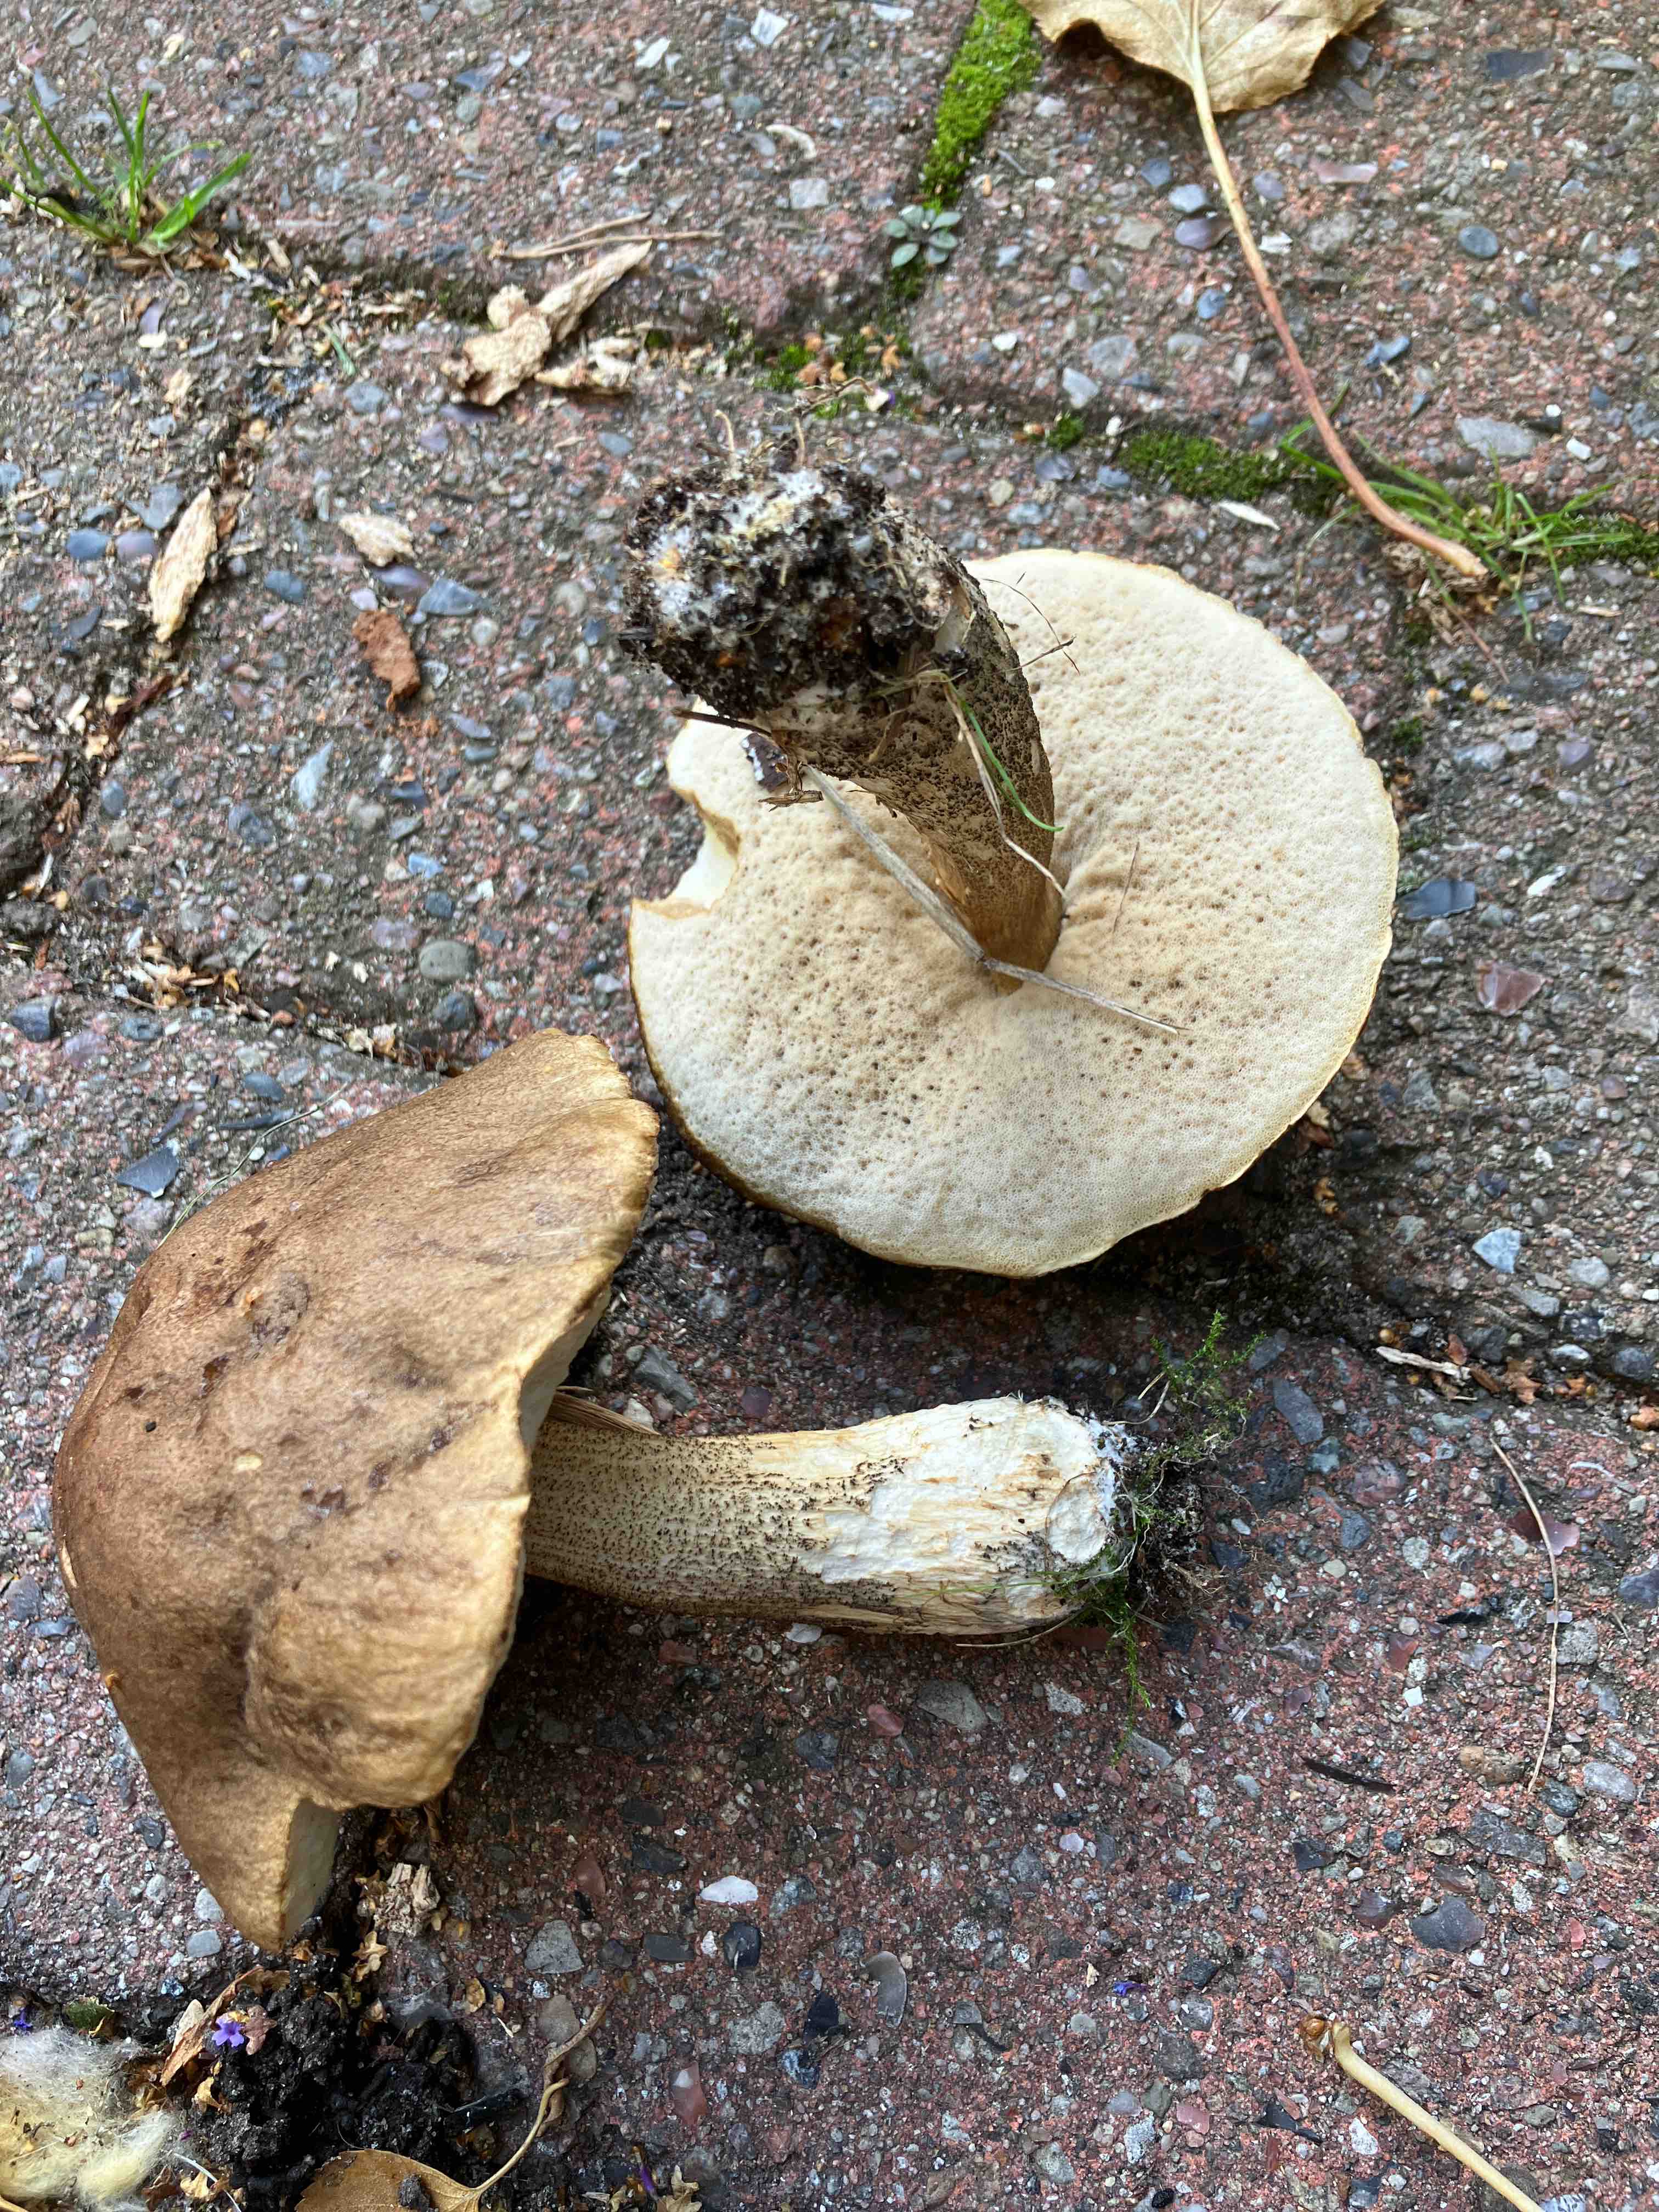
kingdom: Fungi
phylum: Basidiomycota
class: Agaricomycetes
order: Boletales
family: Boletaceae
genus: Leccinum
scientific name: Leccinum scabrum
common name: brun skælrørhat
